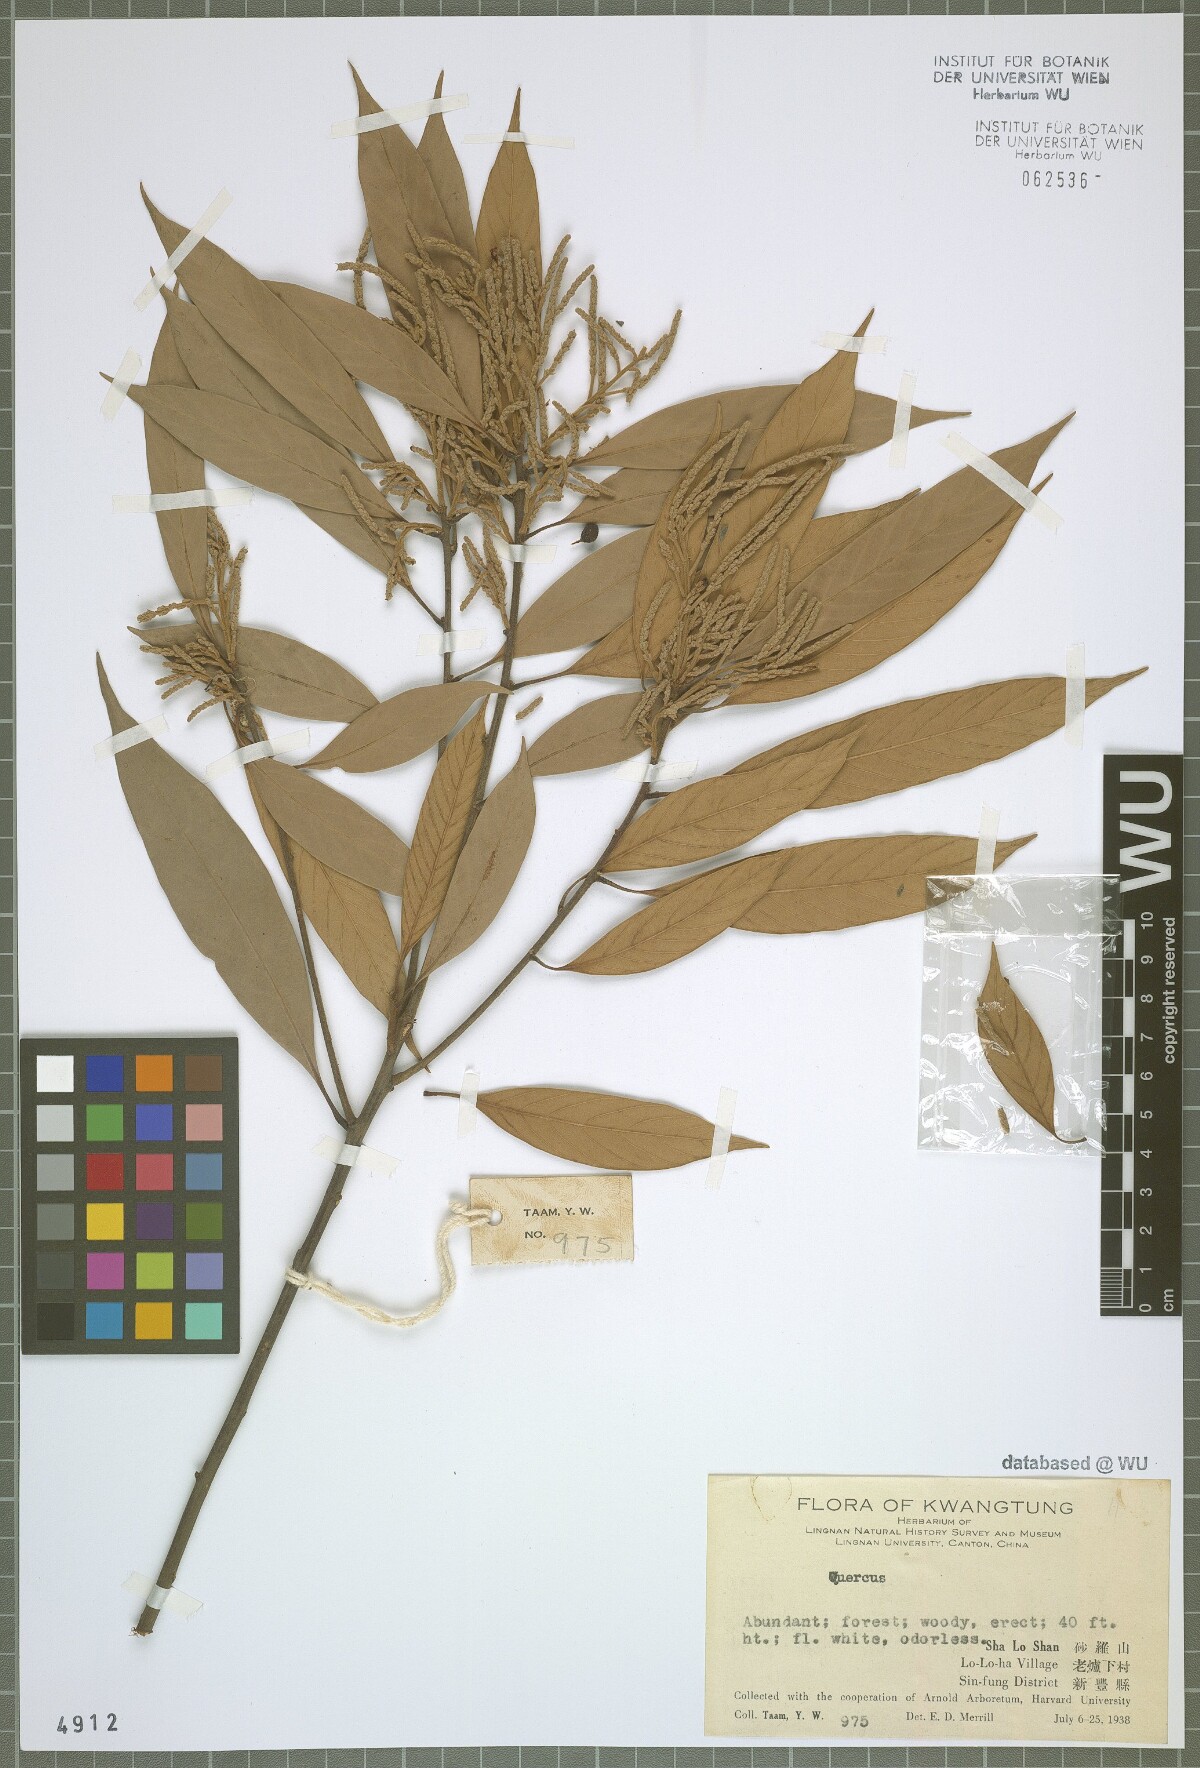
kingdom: Plantae
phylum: Tracheophyta
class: Magnoliopsida
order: Fagales
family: Fagaceae
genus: Quercus
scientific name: Quercus
